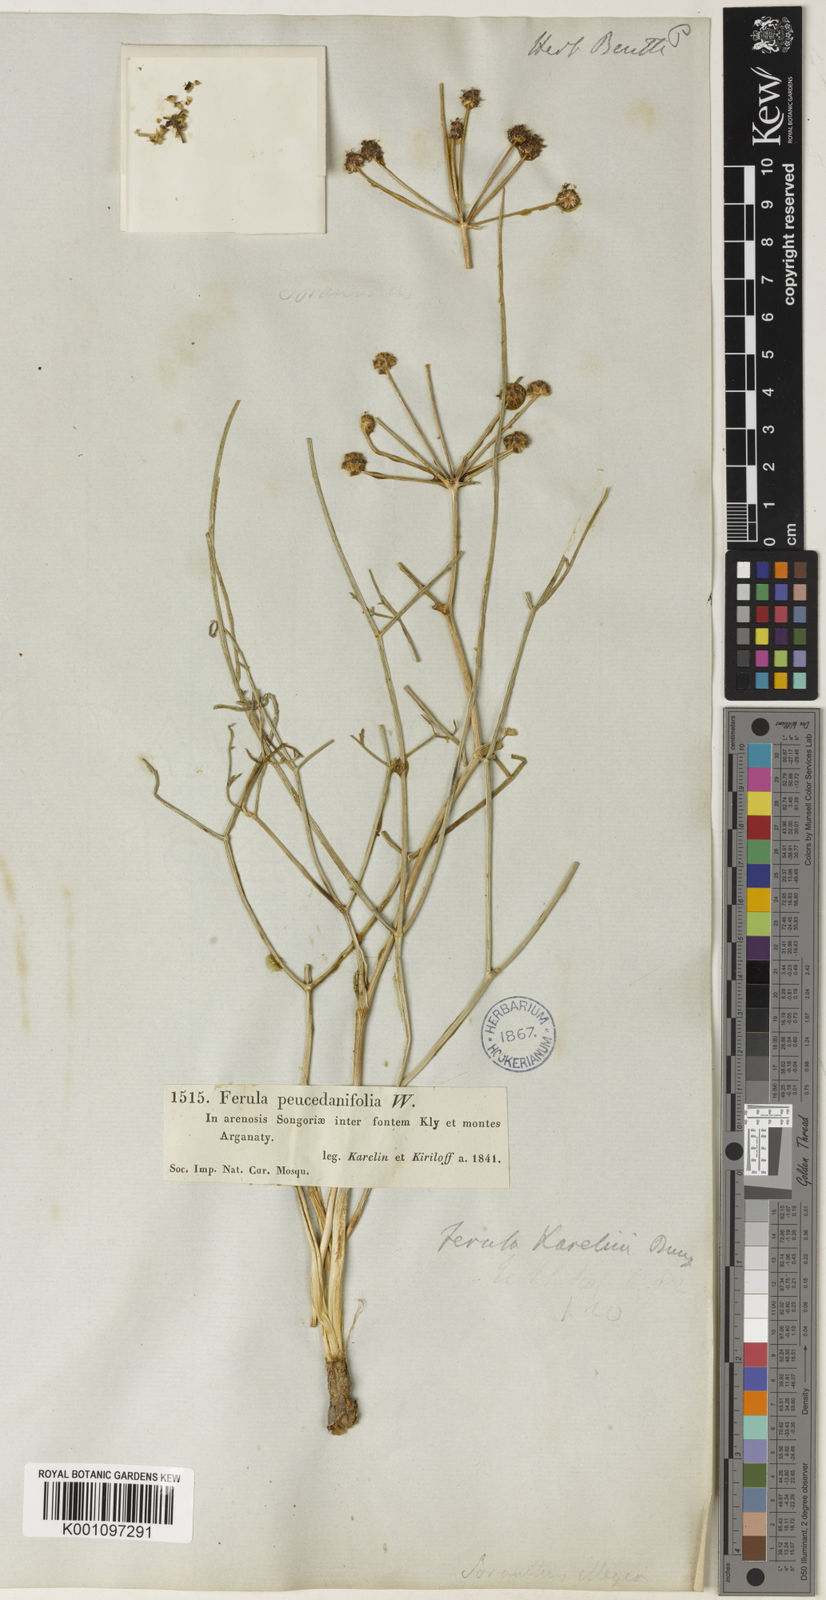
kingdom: Plantae
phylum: Tracheophyta
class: Magnoliopsida
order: Apiales
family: Apiaceae
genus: Ferula
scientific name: Ferula karelinii
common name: Kumsabsi
